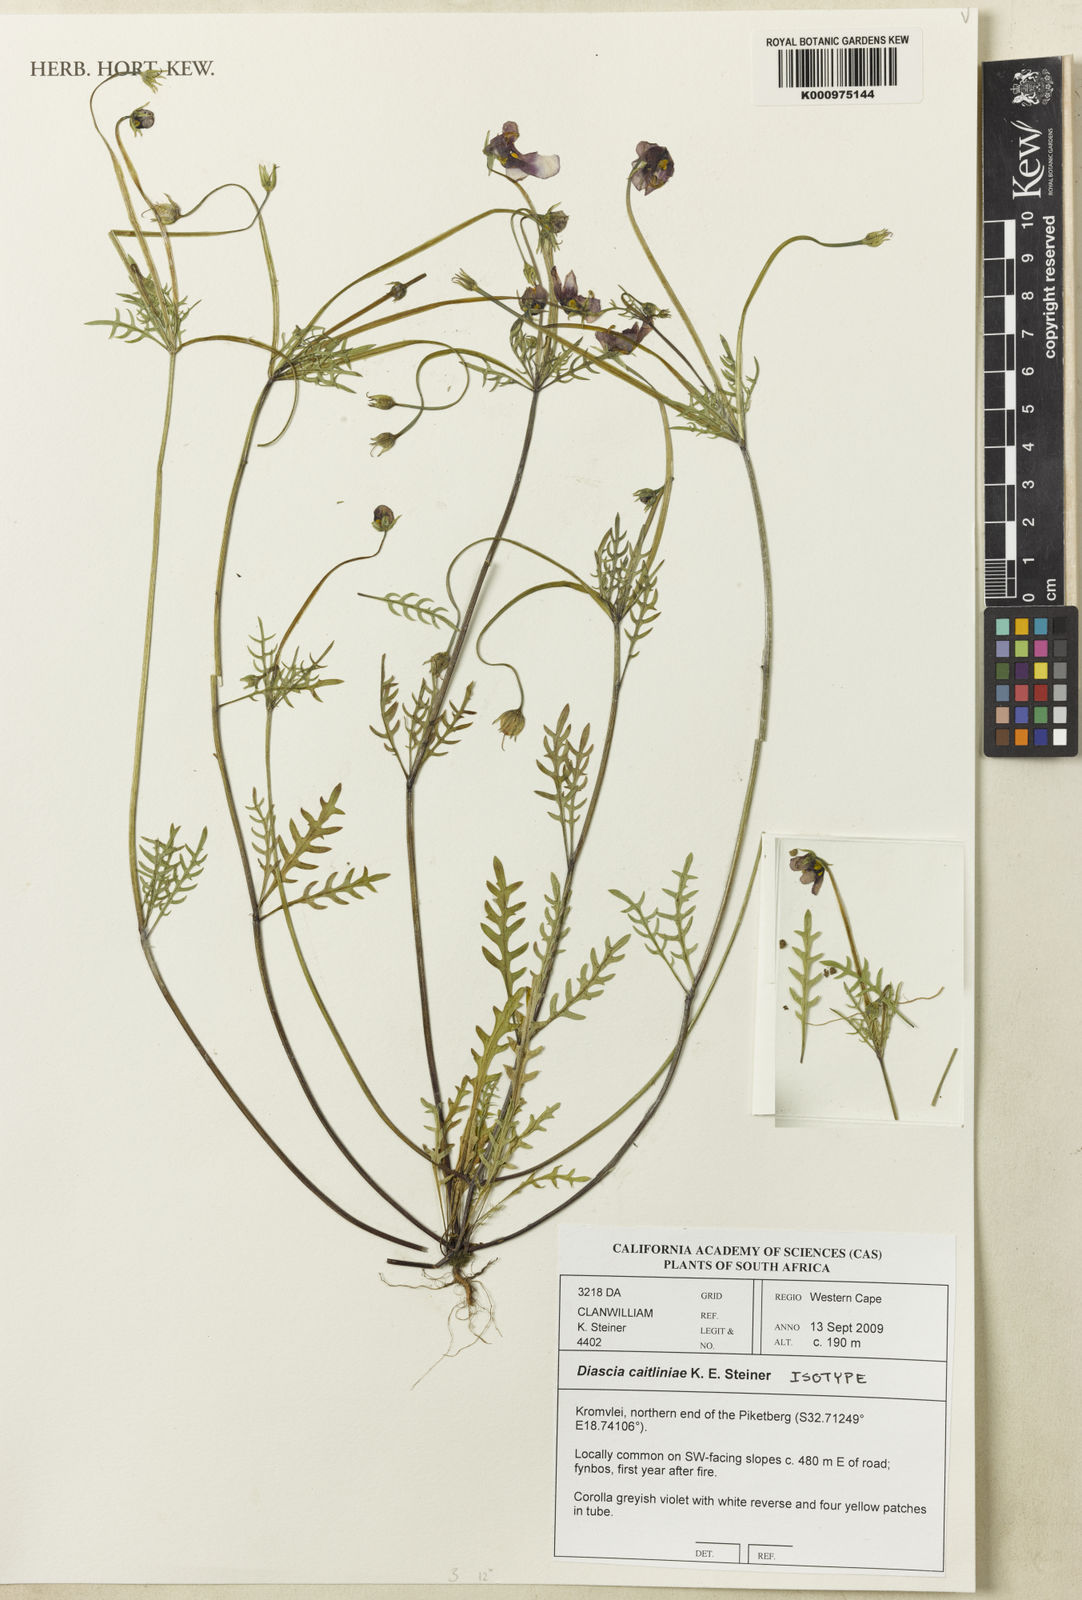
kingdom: Plantae
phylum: Tracheophyta
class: Magnoliopsida
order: Lamiales
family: Scrophulariaceae
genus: Diascia
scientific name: Diascia caitliniae
